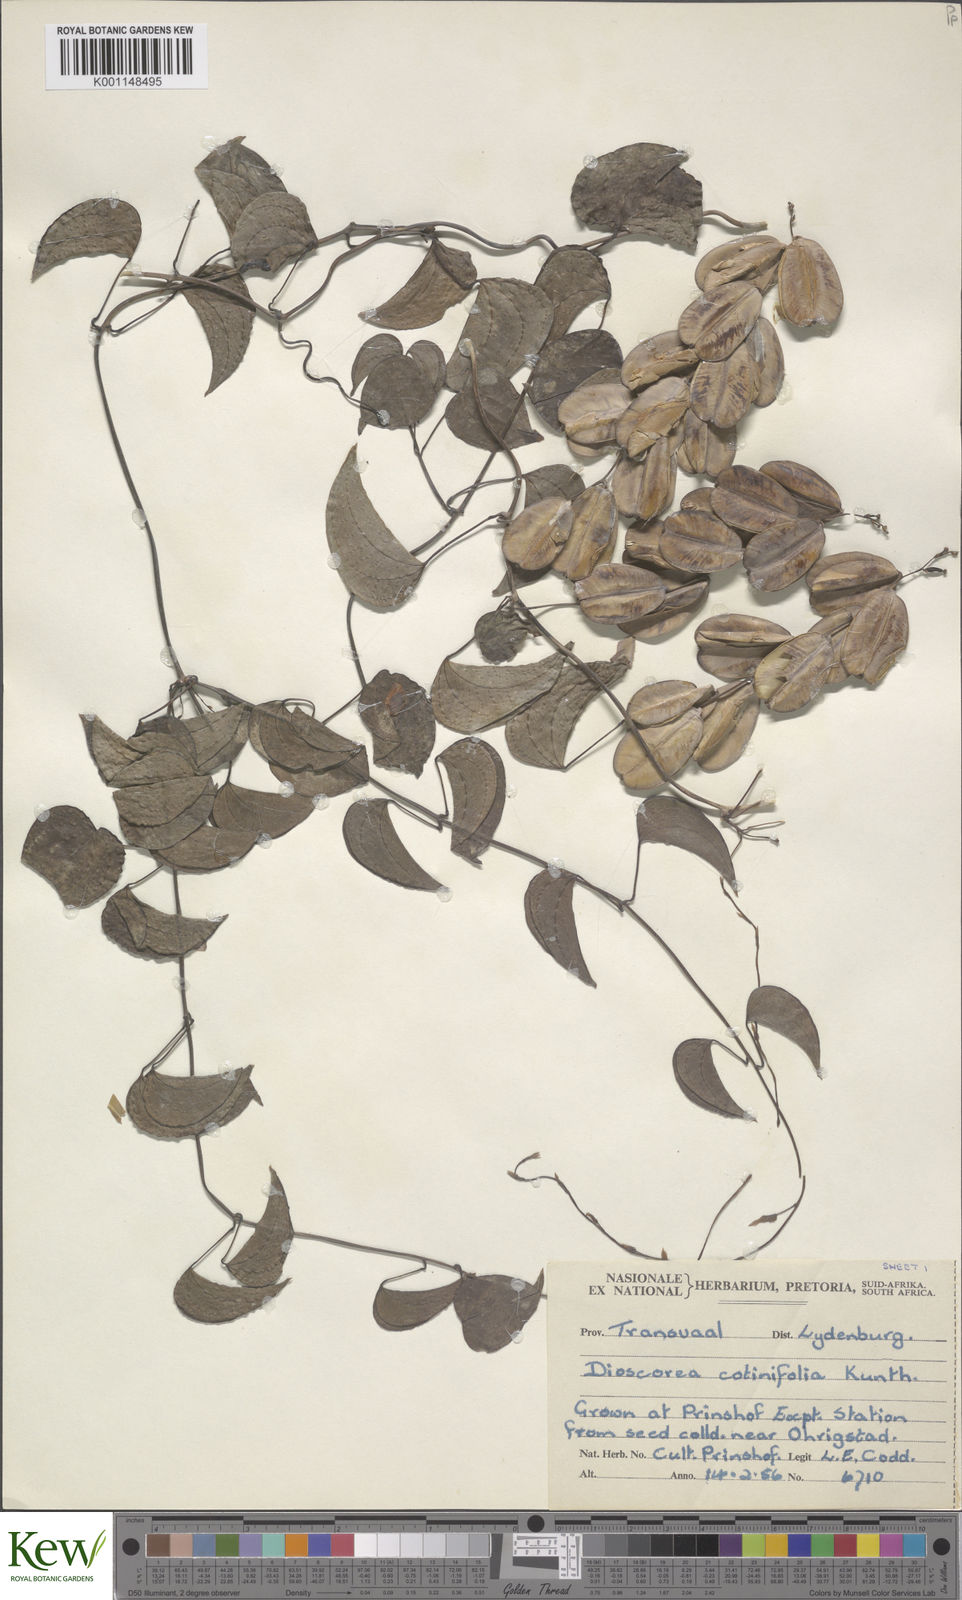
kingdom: Plantae
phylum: Tracheophyta
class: Liliopsida
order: Dioscoreales
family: Dioscoreaceae
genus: Dioscorea
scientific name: Dioscorea cotinifolia
